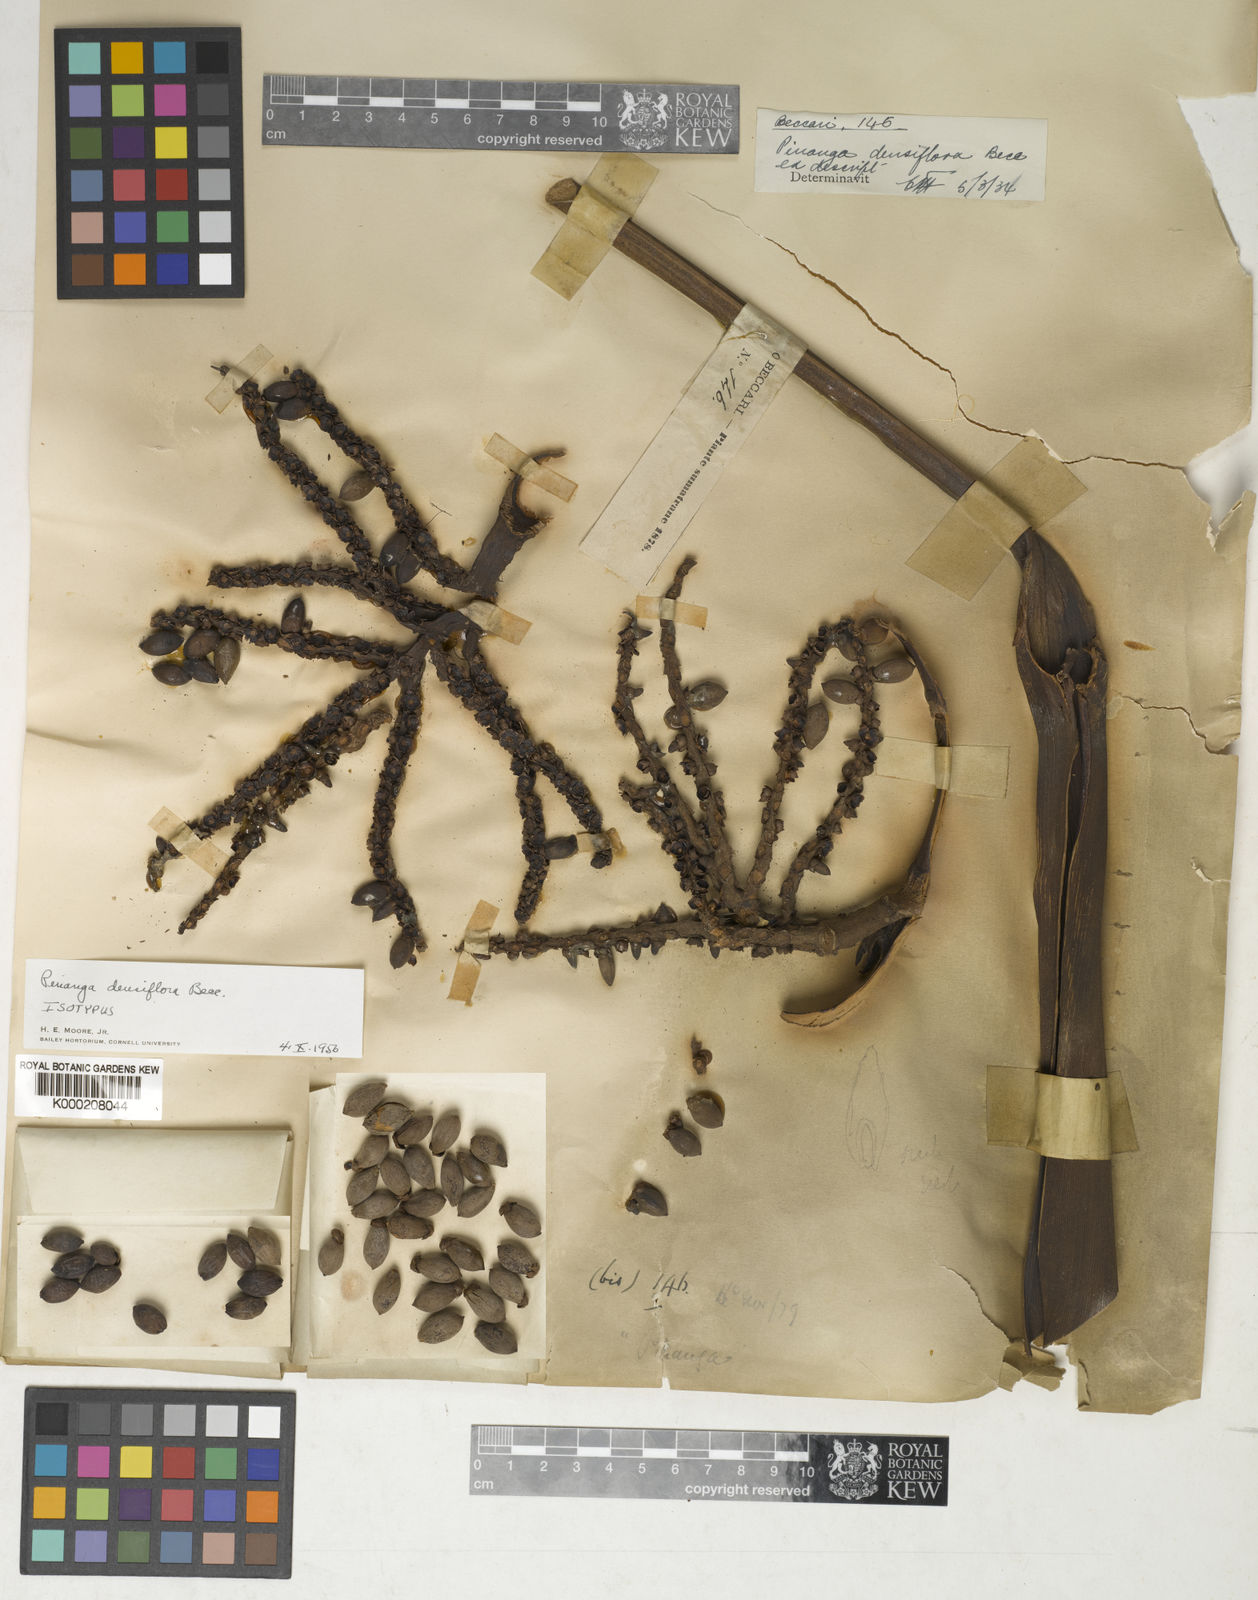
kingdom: Plantae
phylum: Tracheophyta
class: Liliopsida
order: Arecales
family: Arecaceae
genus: Pinanga
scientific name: Pinanga densiflora
